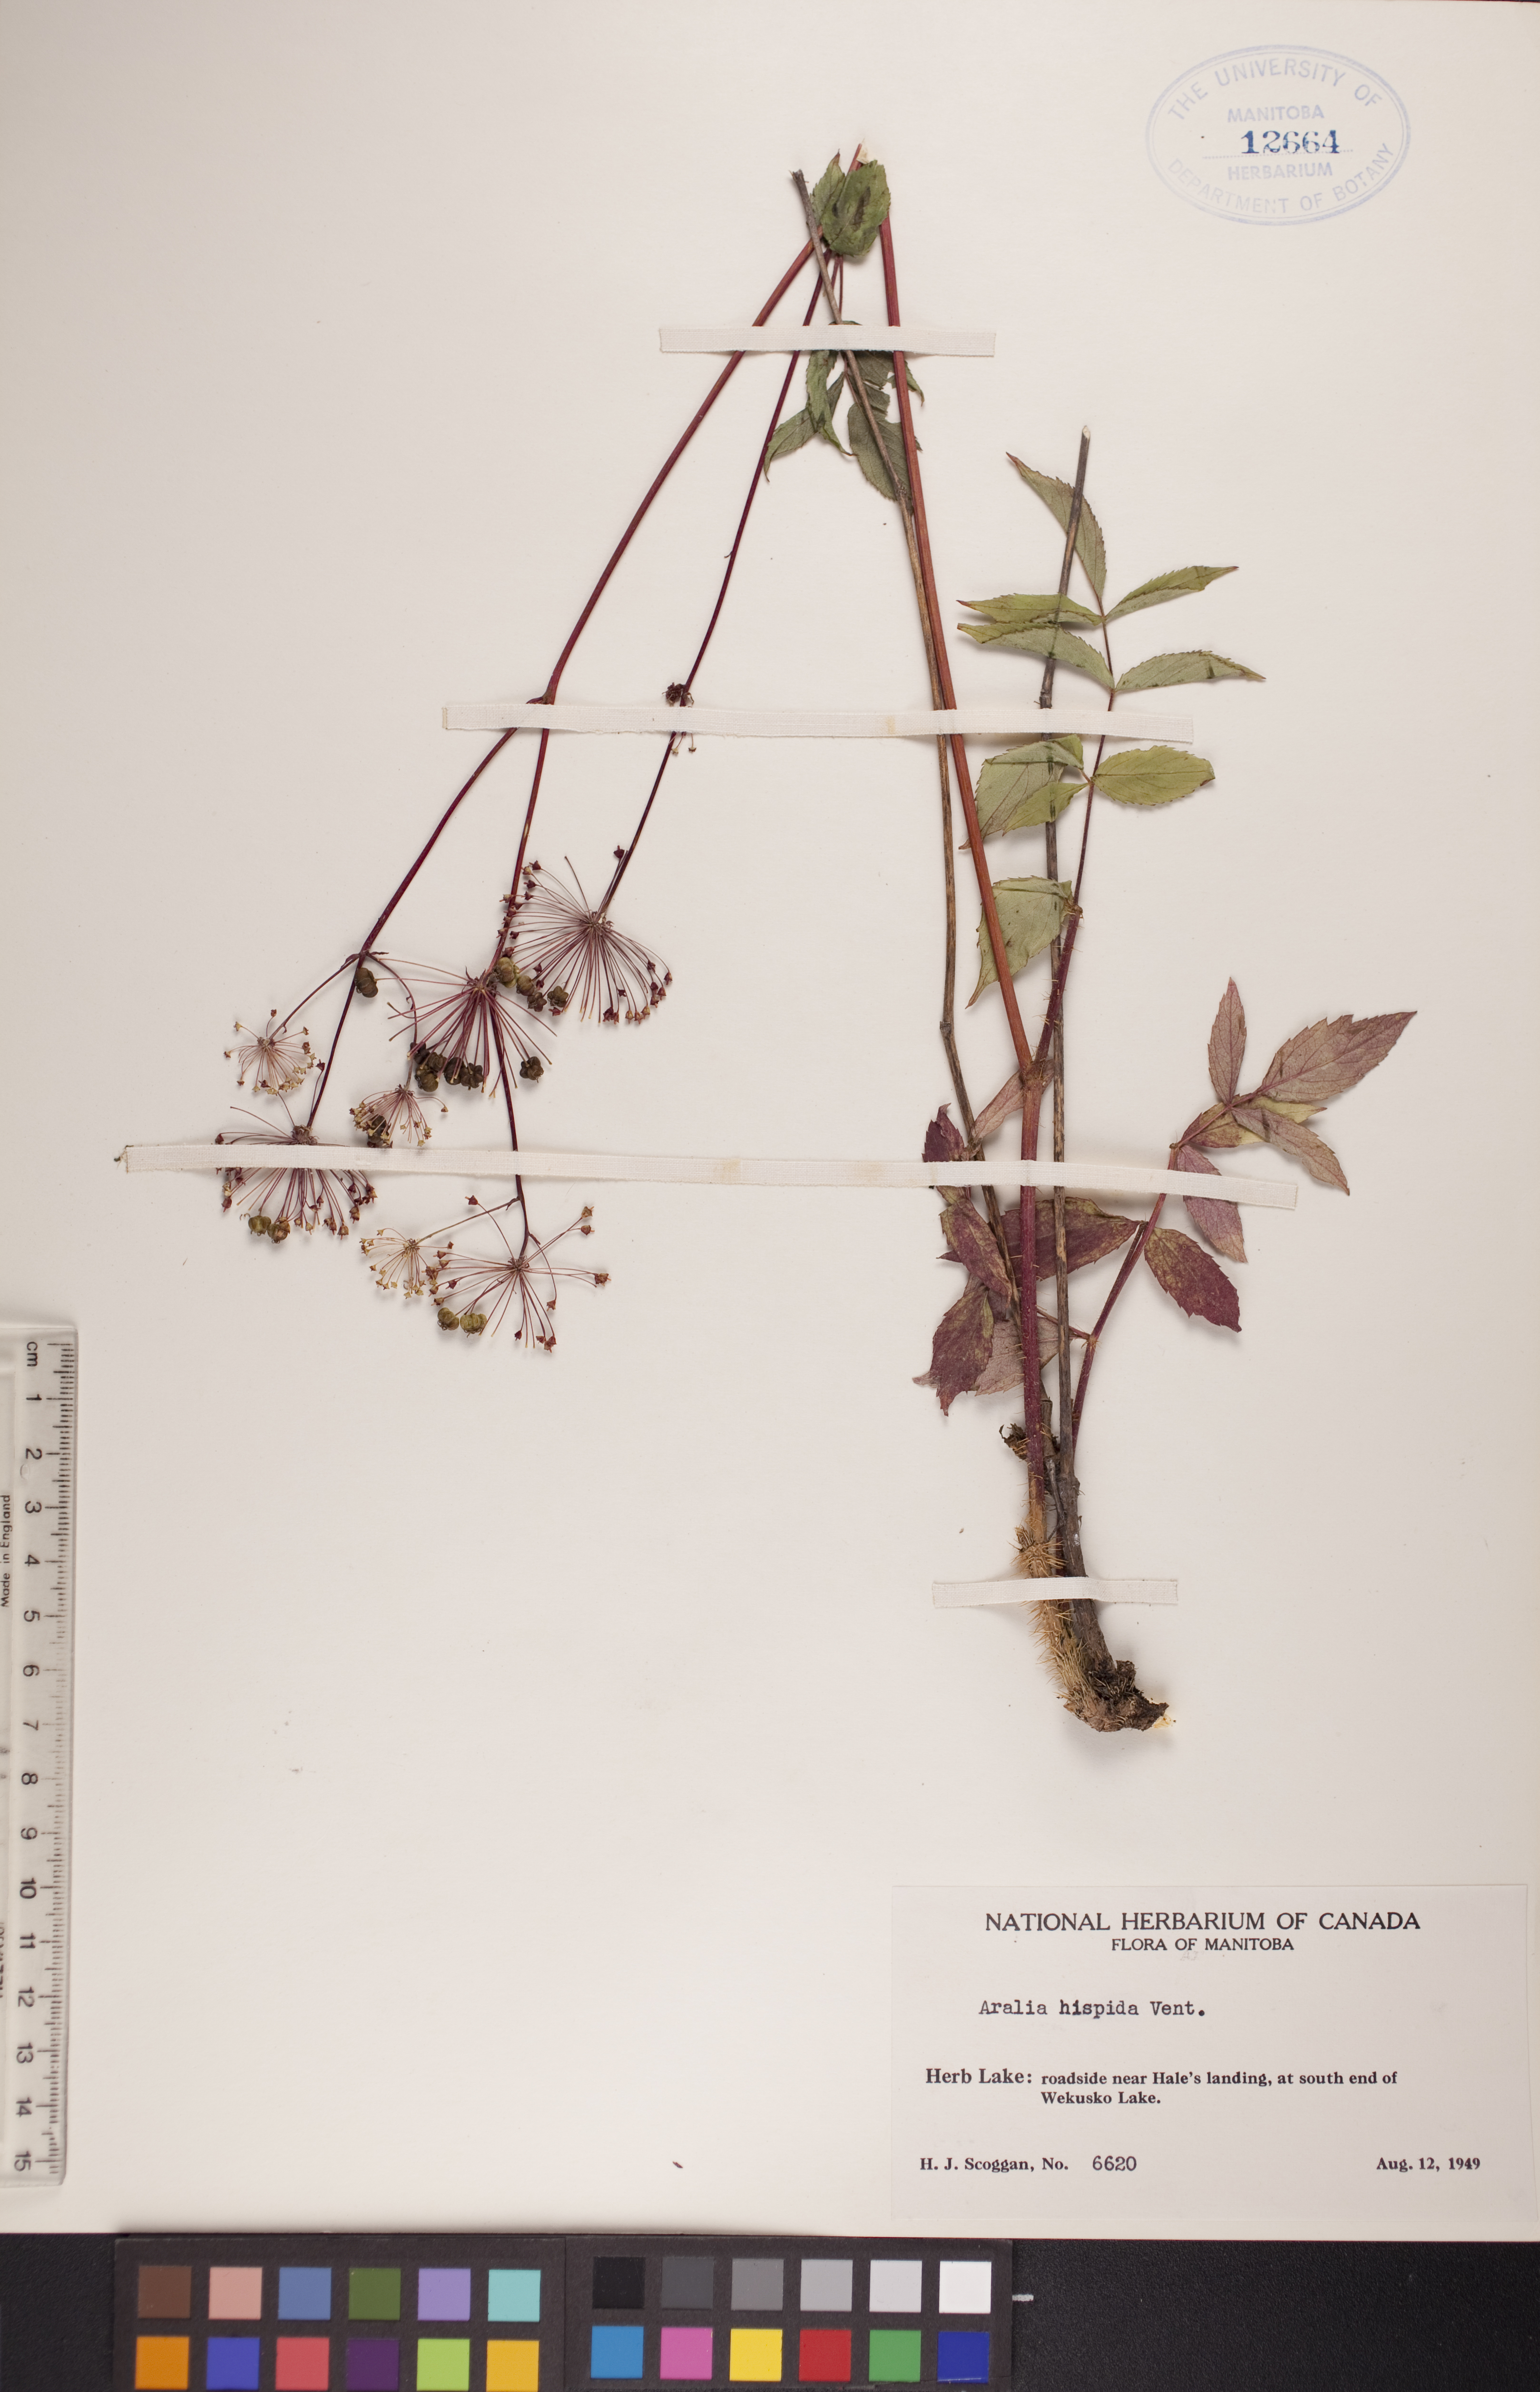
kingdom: Plantae
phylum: Tracheophyta
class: Magnoliopsida
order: Apiales
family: Araliaceae
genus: Aralia
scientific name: Aralia hispida
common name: Bristly sarsaparilla
